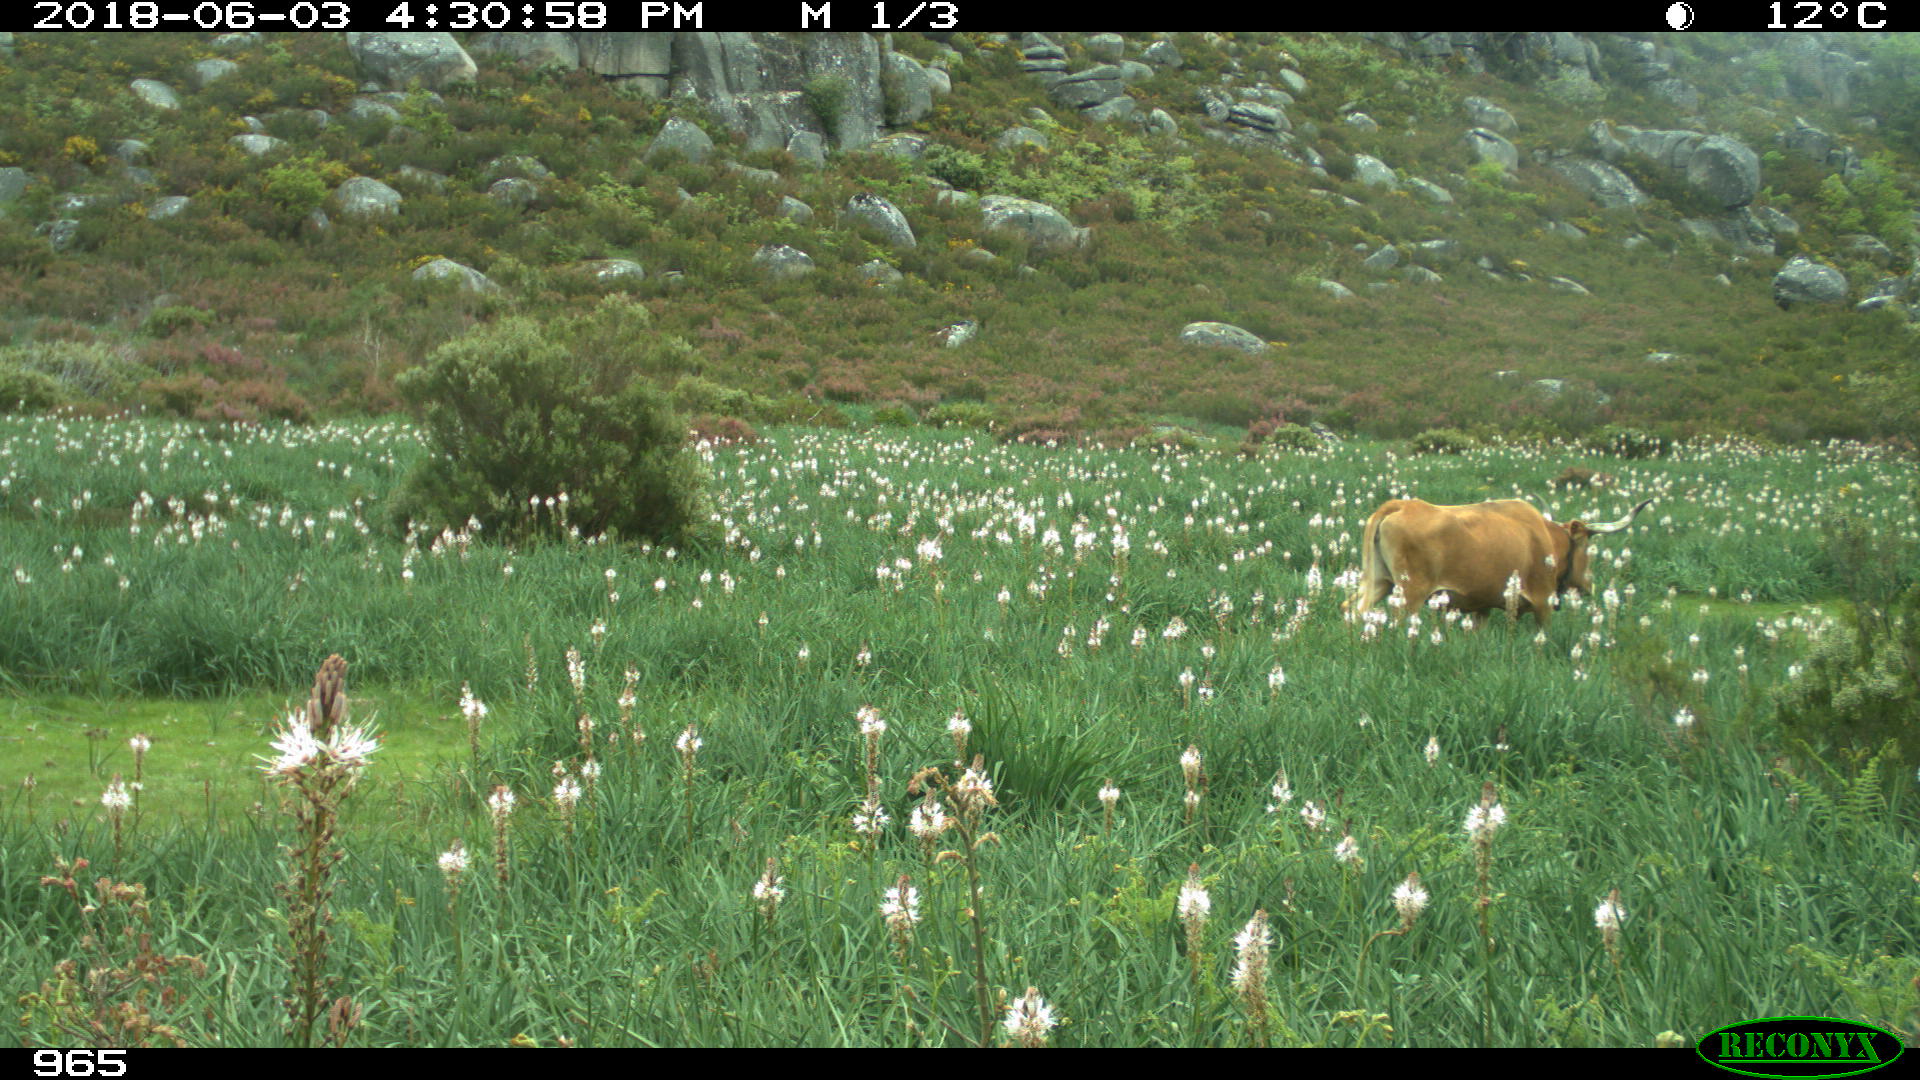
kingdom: Animalia
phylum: Chordata
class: Mammalia
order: Artiodactyla
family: Bovidae
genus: Bos
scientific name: Bos taurus
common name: Domesticated cattle
